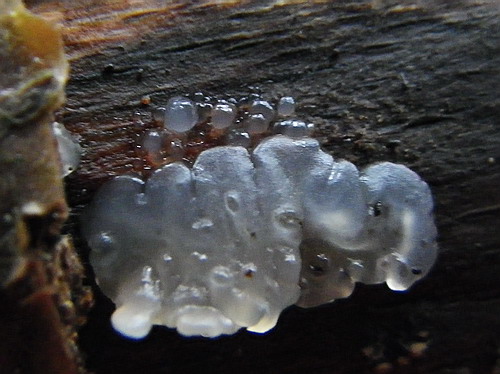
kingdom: Fungi
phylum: Basidiomycota
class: Agaricomycetes
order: Auriculariales
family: Hyaloriaceae
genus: Myxarium
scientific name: Myxarium nucleatum
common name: klar bævretop
